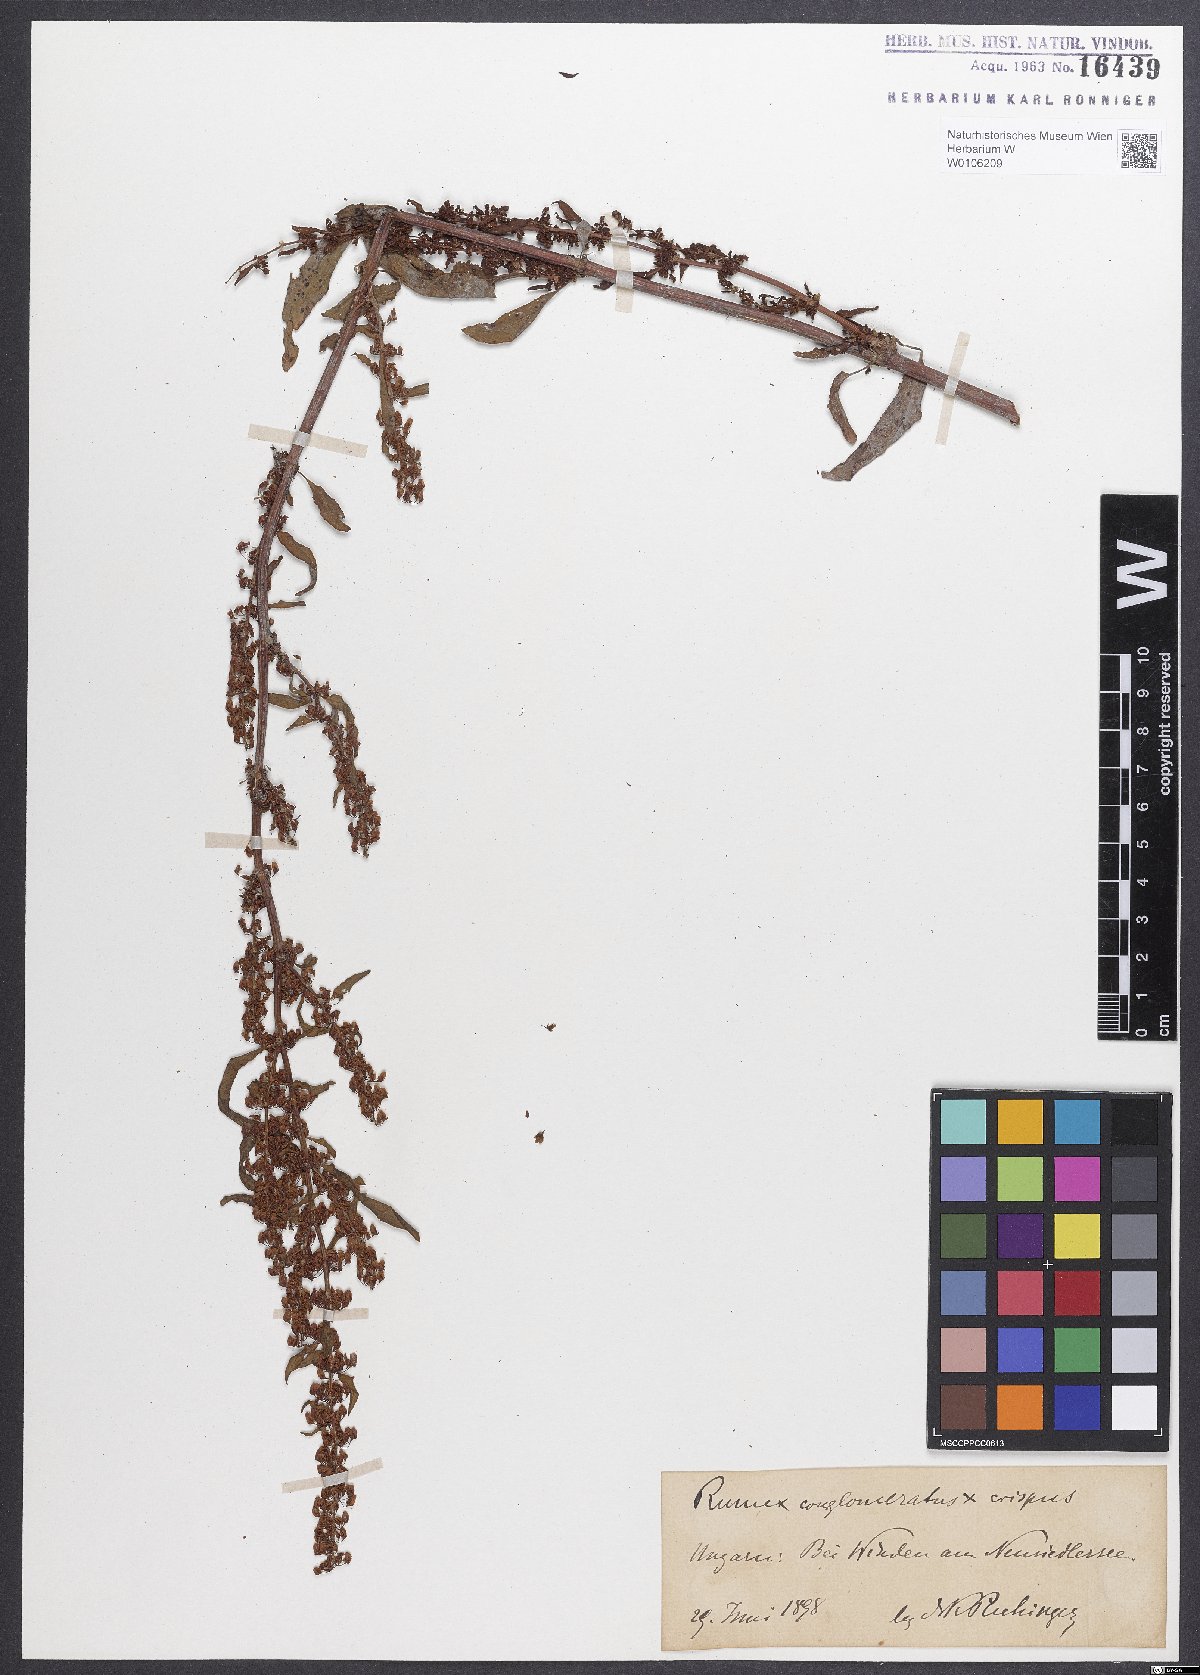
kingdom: Plantae
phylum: Tracheophyta
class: Magnoliopsida
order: Caryophyllales
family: Polygonaceae
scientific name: Polygonaceae
